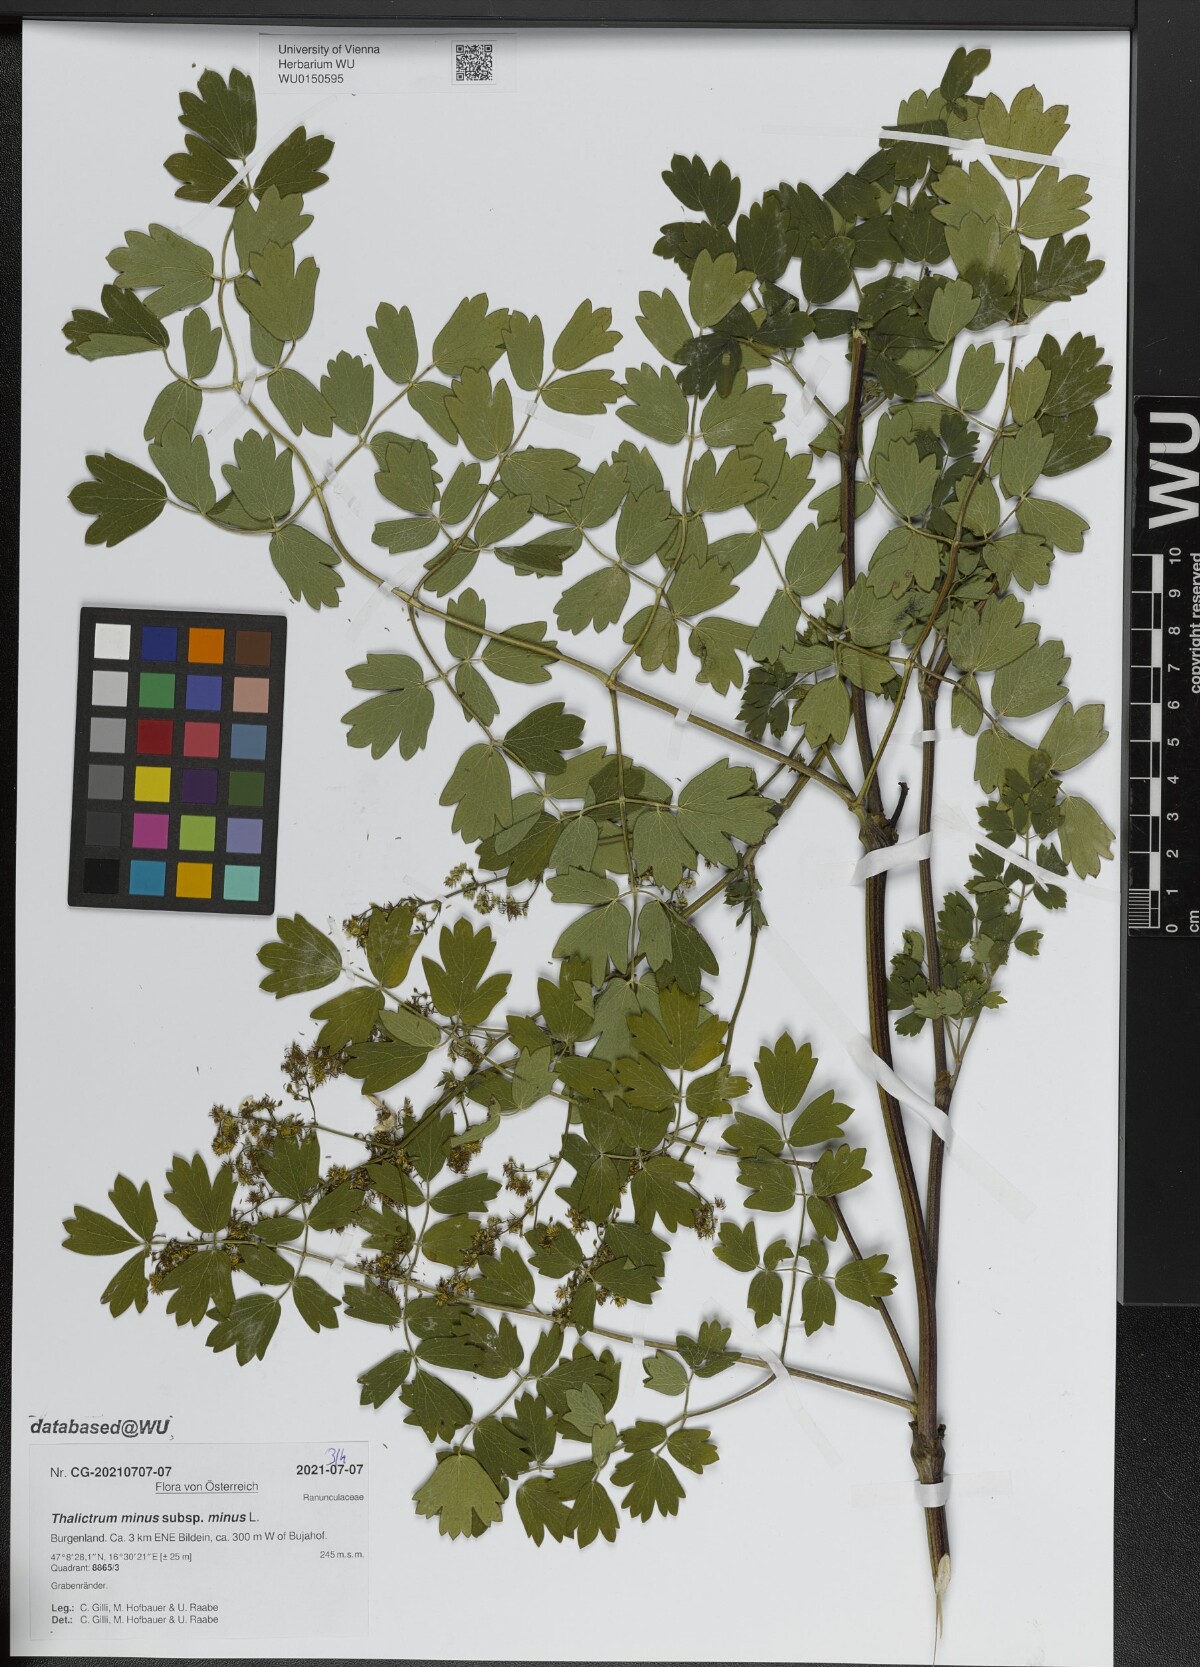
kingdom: Plantae
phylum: Tracheophyta
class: Magnoliopsida
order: Ranunculales
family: Ranunculaceae
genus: Thalictrum
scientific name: Thalictrum minus
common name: Lesser meadow-rue
